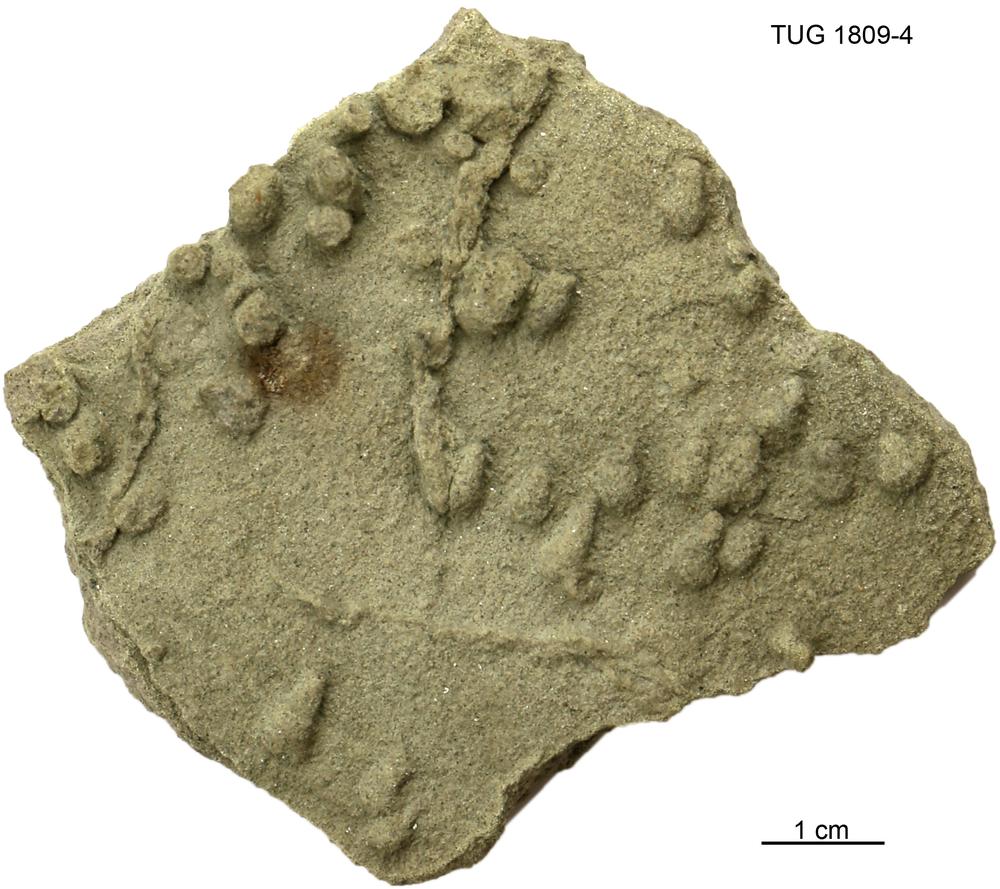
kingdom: Animalia
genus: Chondrites
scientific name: Chondrites
